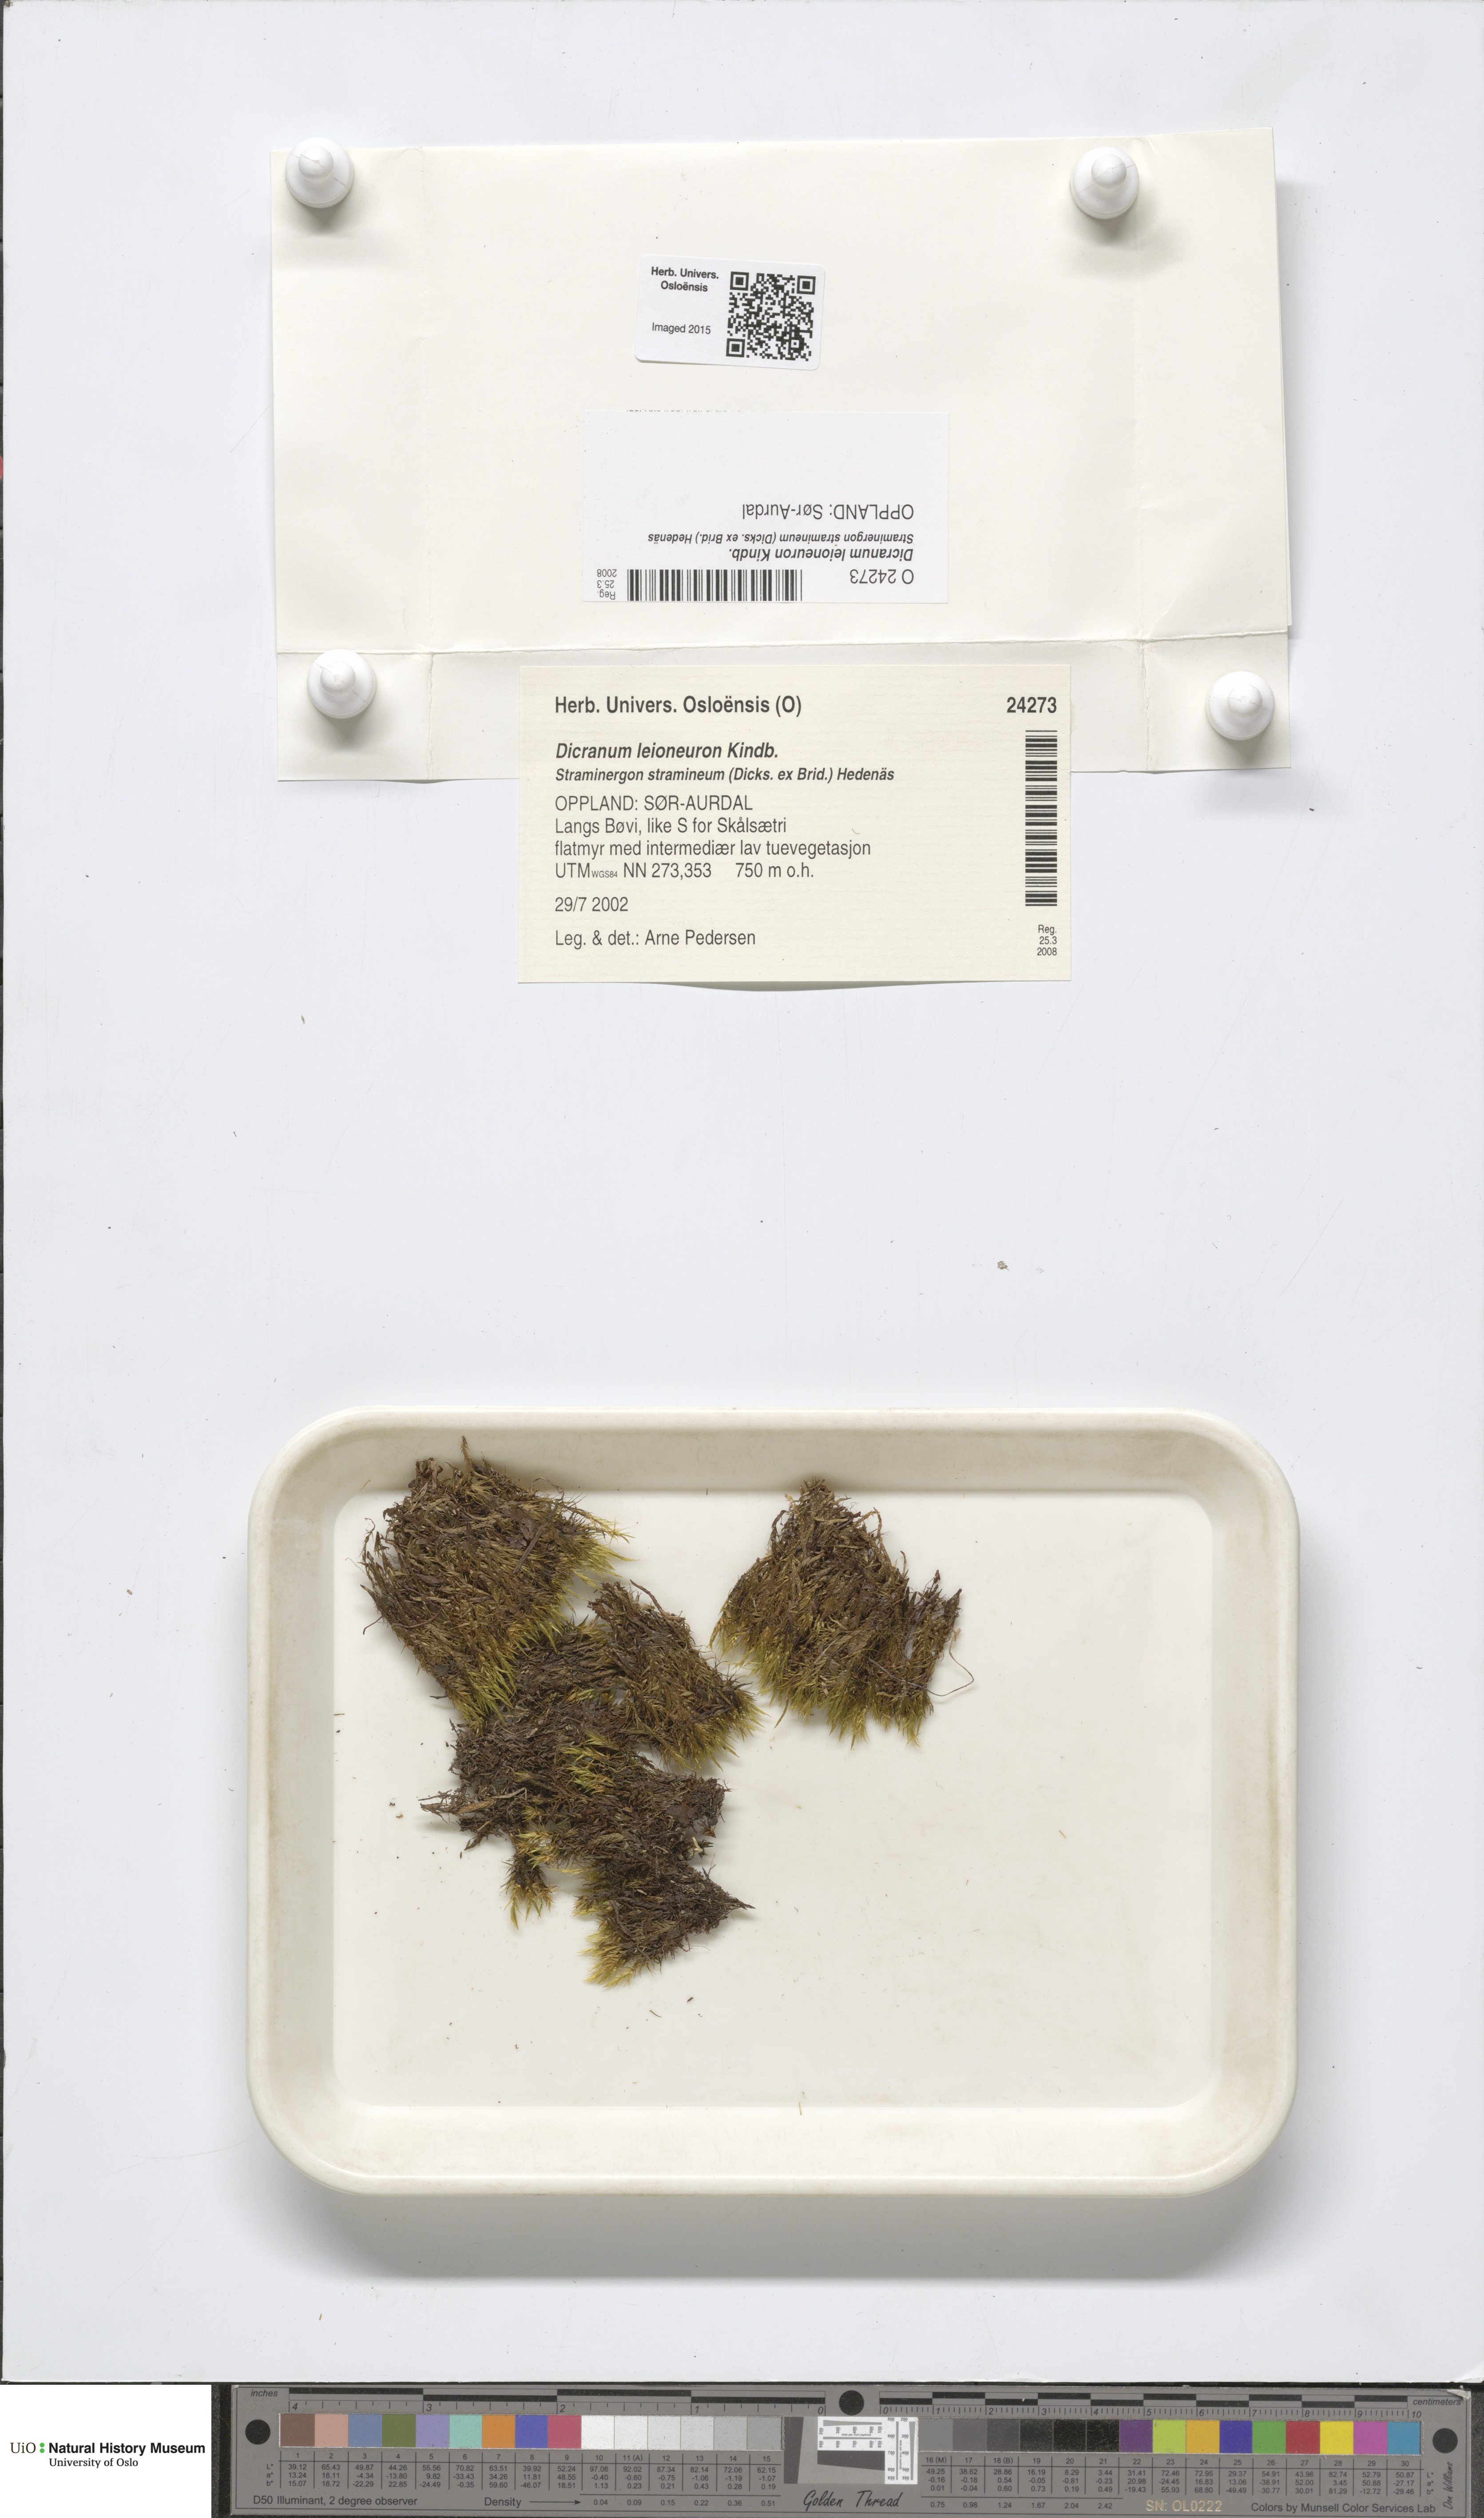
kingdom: Plantae
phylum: Bryophyta
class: Bryopsida
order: Dicranales
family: Dicranaceae
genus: Dicranum
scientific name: Dicranum leioneuron
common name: Variable-leaved broom moss
